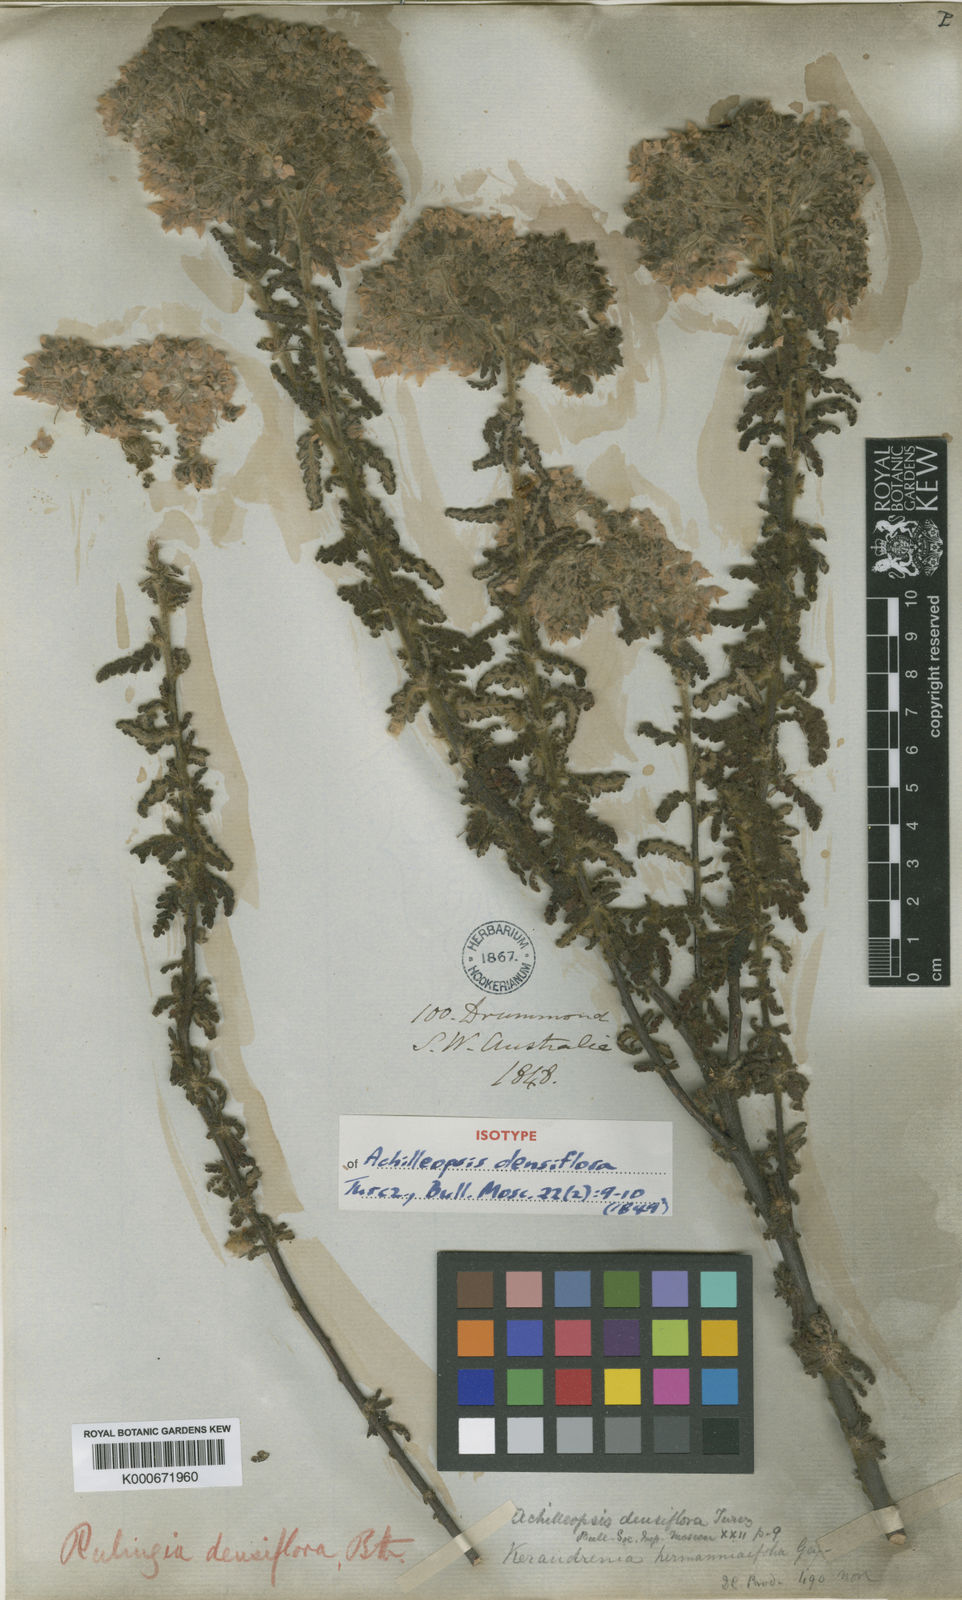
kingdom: Plantae
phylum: Tracheophyta
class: Magnoliopsida
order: Malvales
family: Malvaceae
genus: Commersonia
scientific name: Commersonia densiflora
